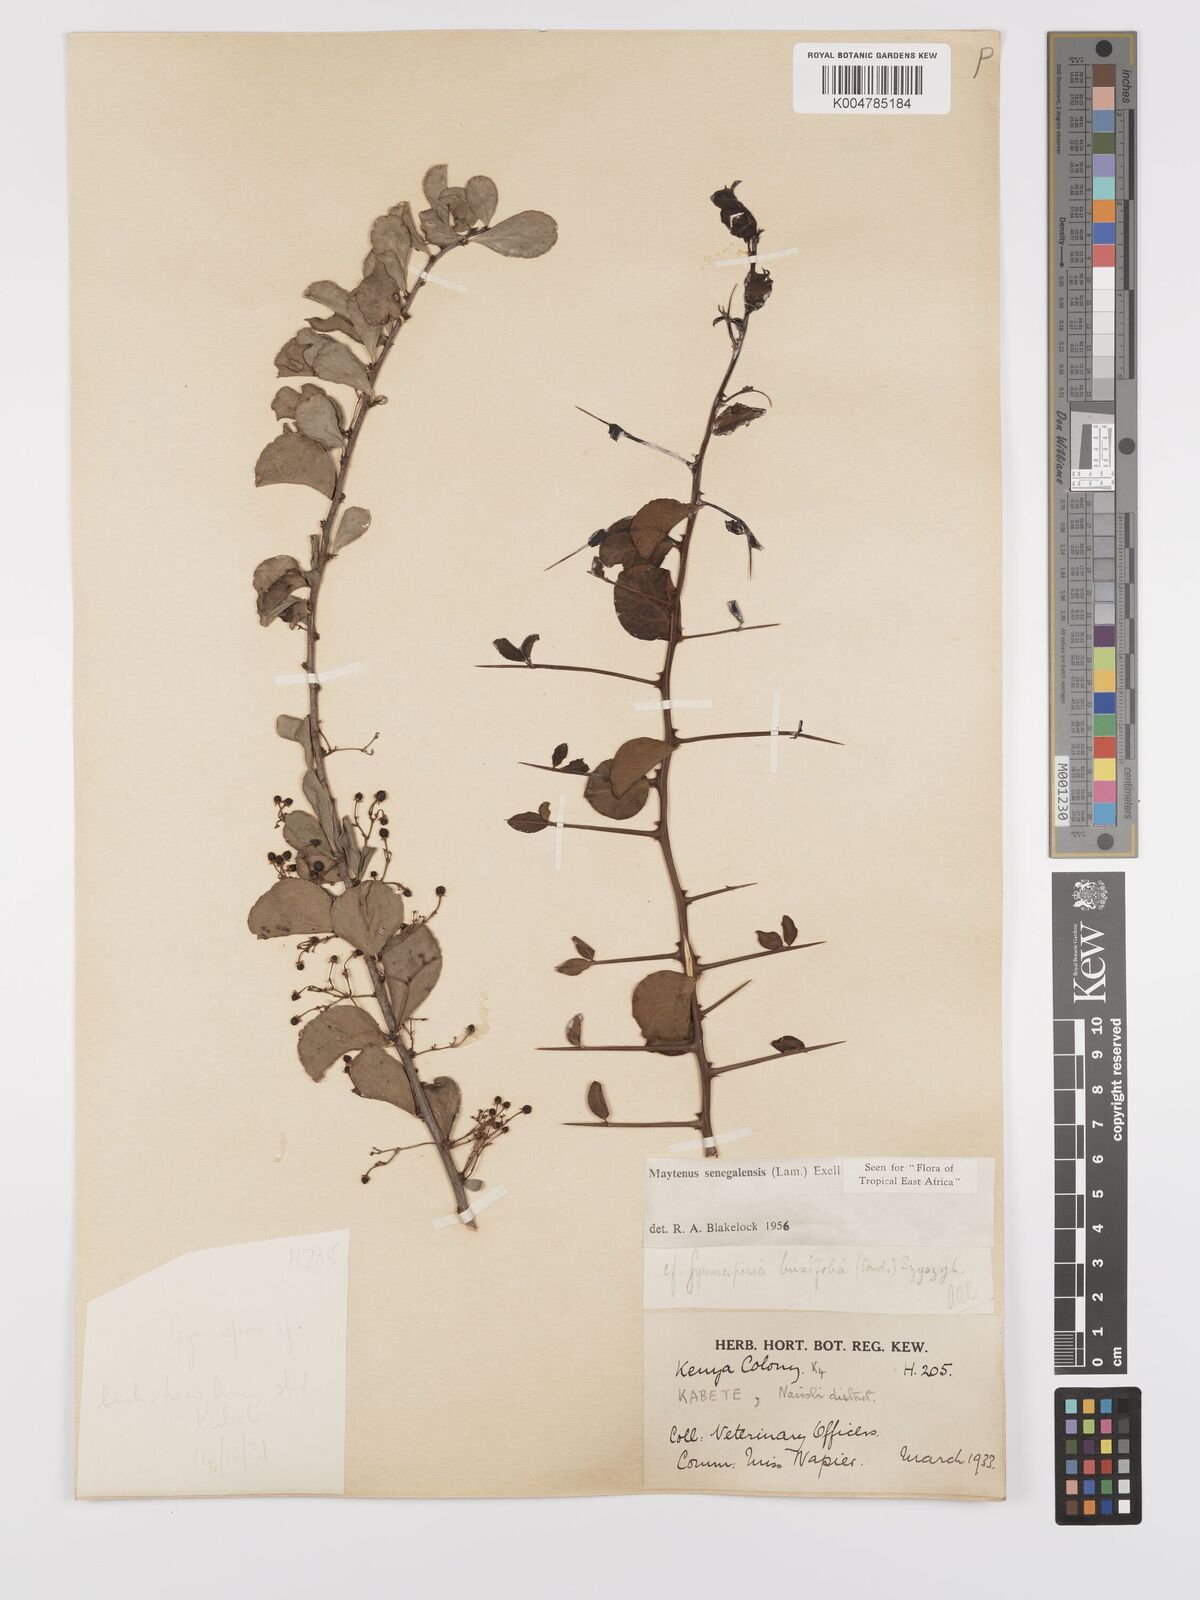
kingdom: Plantae
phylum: Tracheophyta
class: Magnoliopsida
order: Celastrales
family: Celastraceae
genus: Gymnosporia
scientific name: Gymnosporia heterophylla
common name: Angle-stem spikethorn
